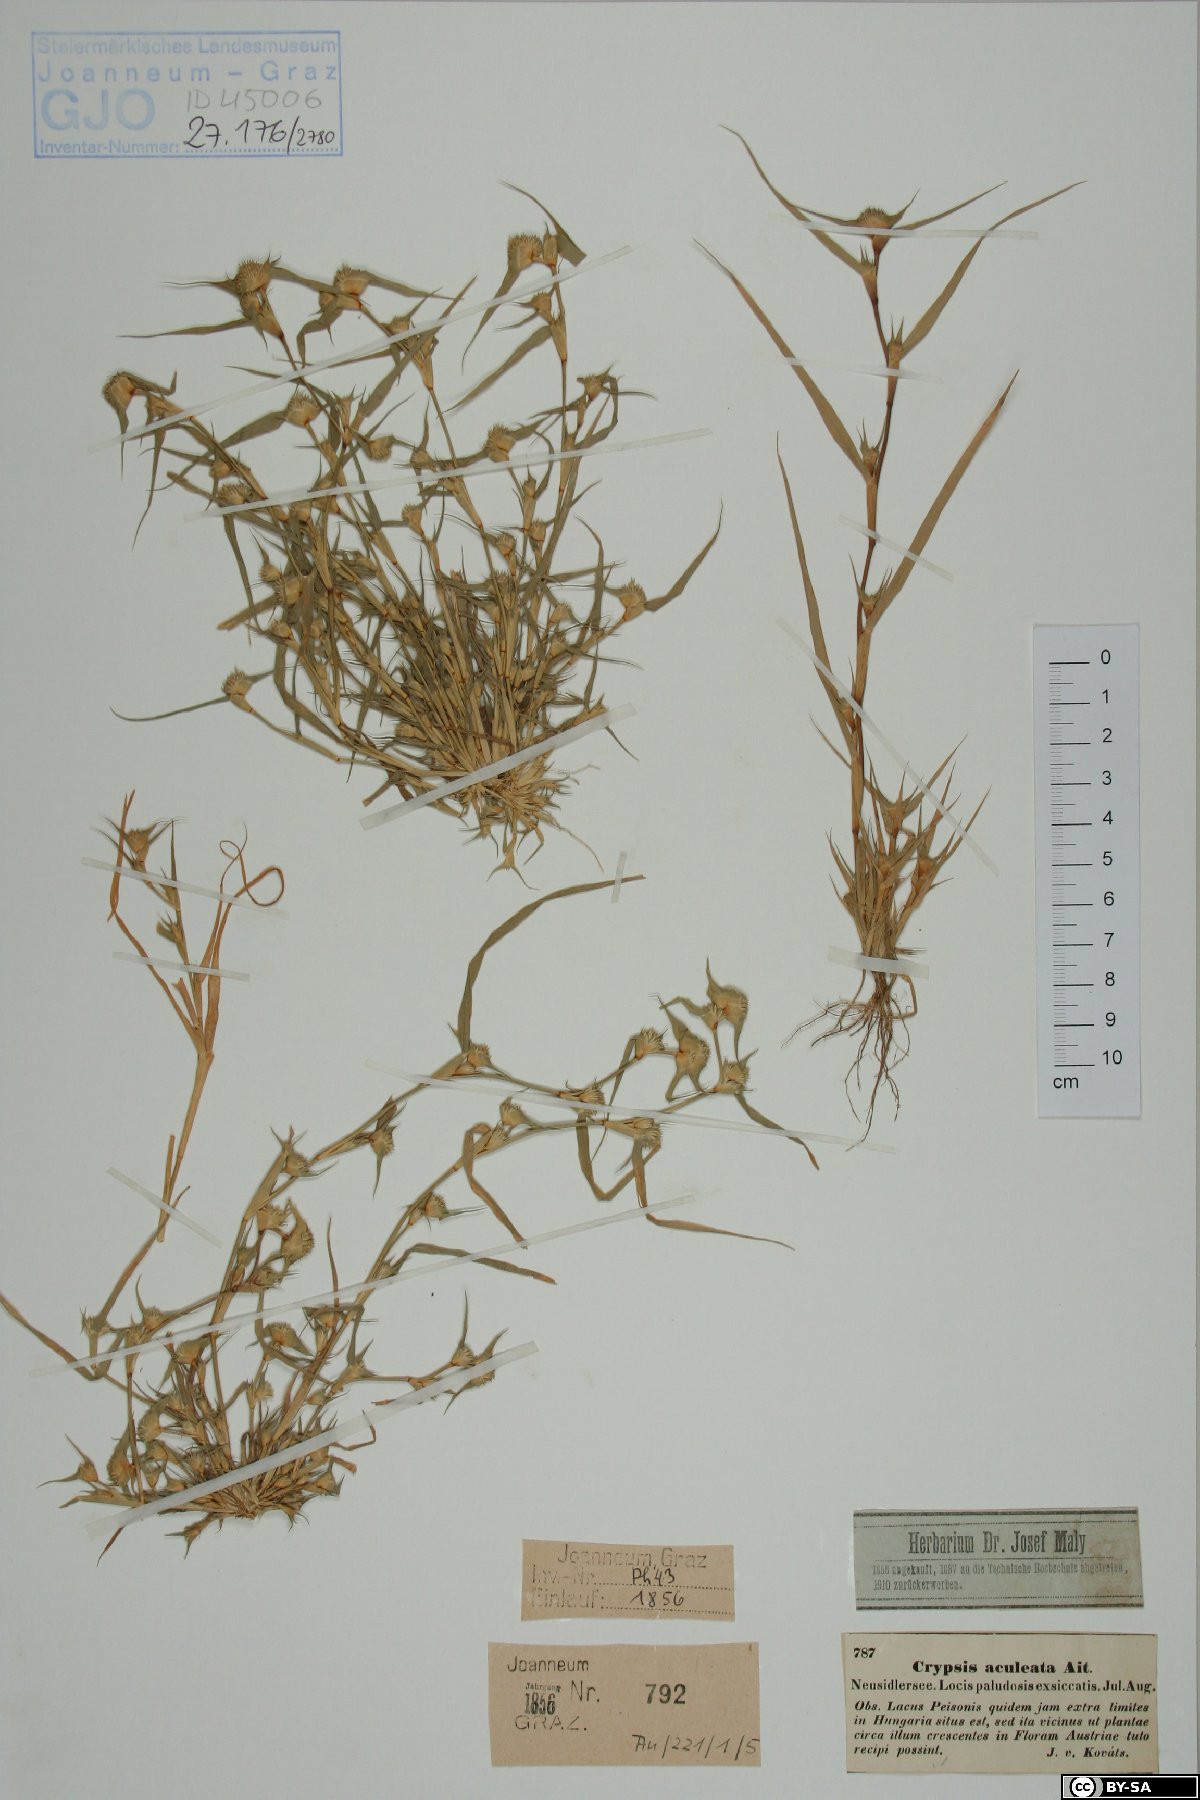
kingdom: Plantae
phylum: Tracheophyta
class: Liliopsida
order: Poales
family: Poaceae
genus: Sporobolus
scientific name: Sporobolus aculeatus
